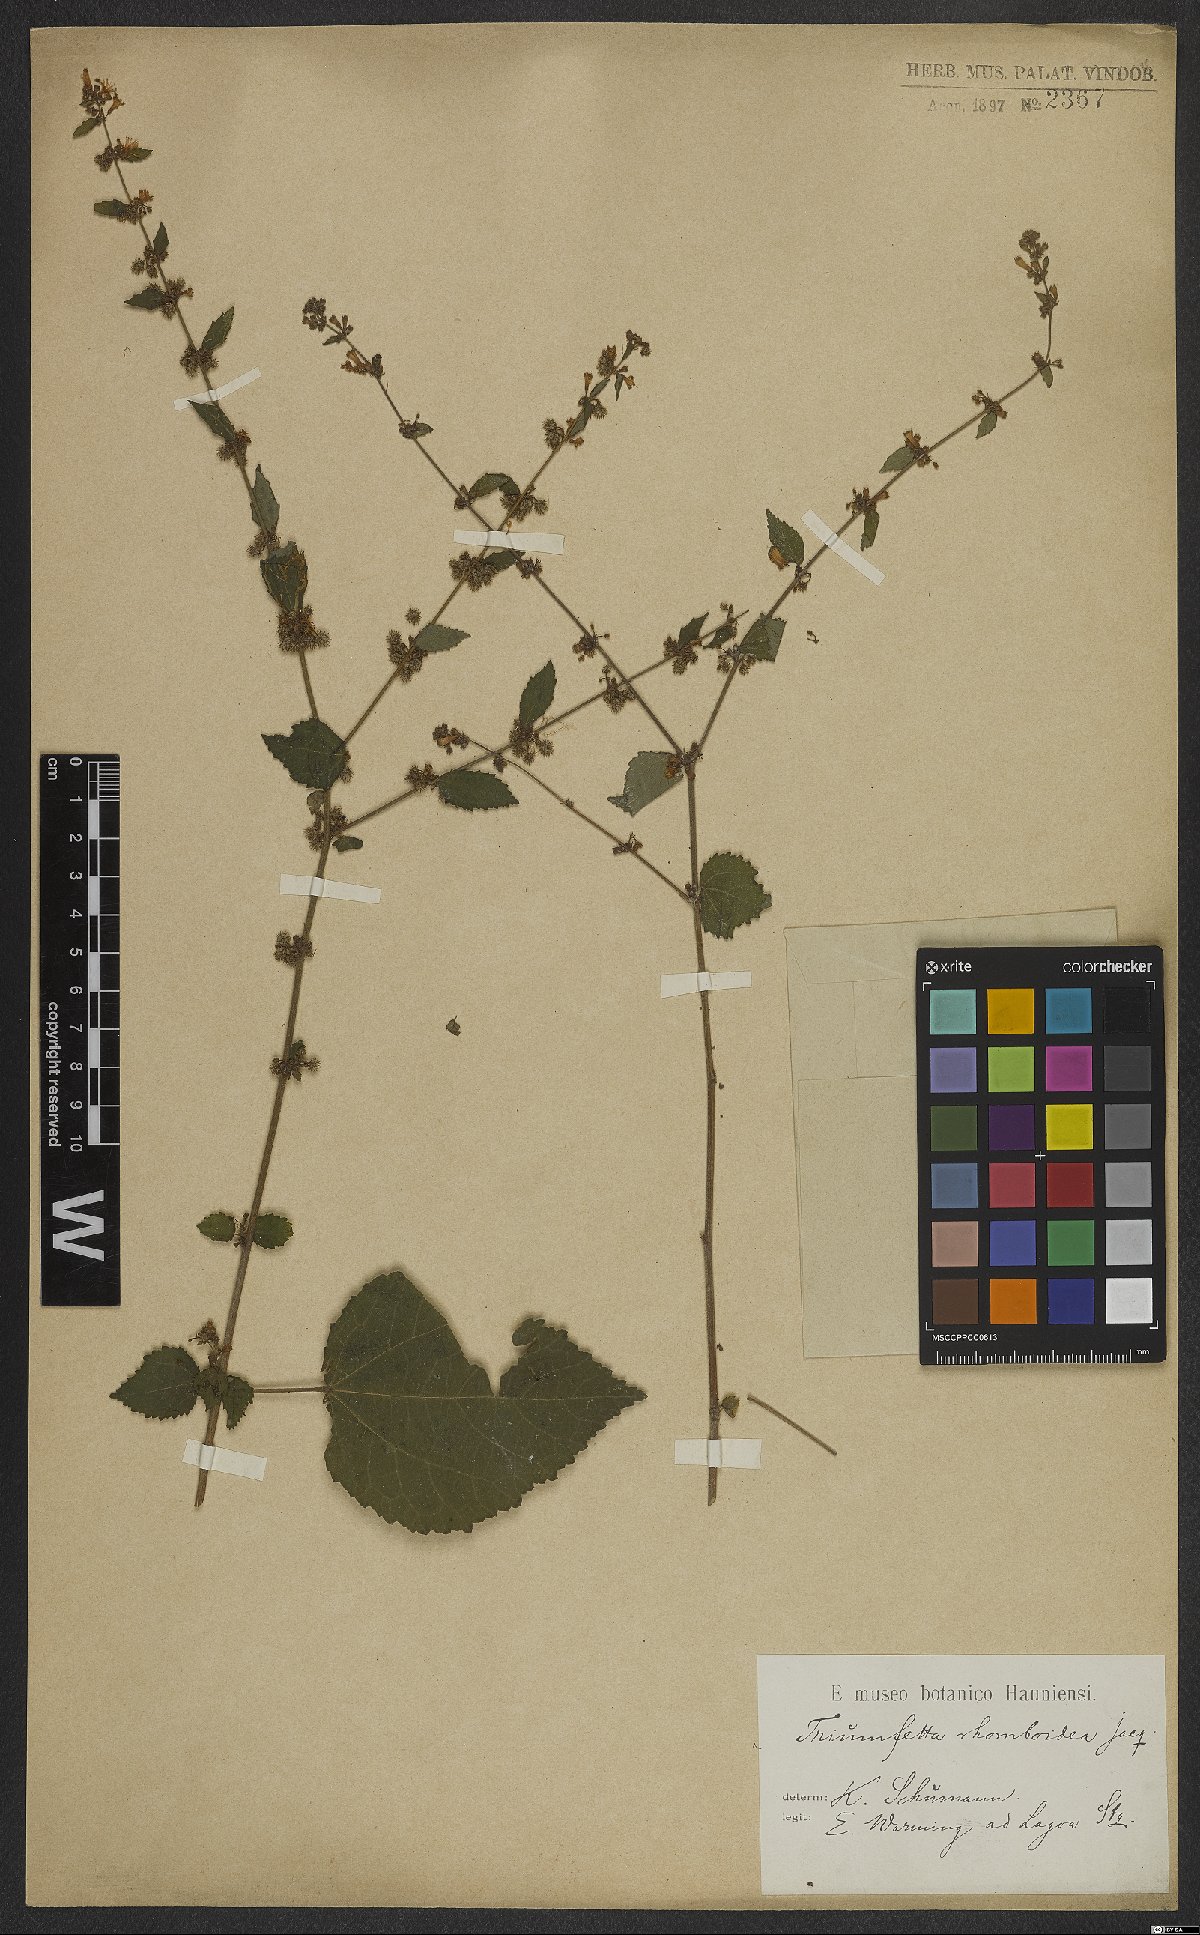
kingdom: Plantae
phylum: Tracheophyta
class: Magnoliopsida
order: Malvales
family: Malvaceae
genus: Triumfetta
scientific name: Triumfetta rhomboidea
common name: Diamond burbark
